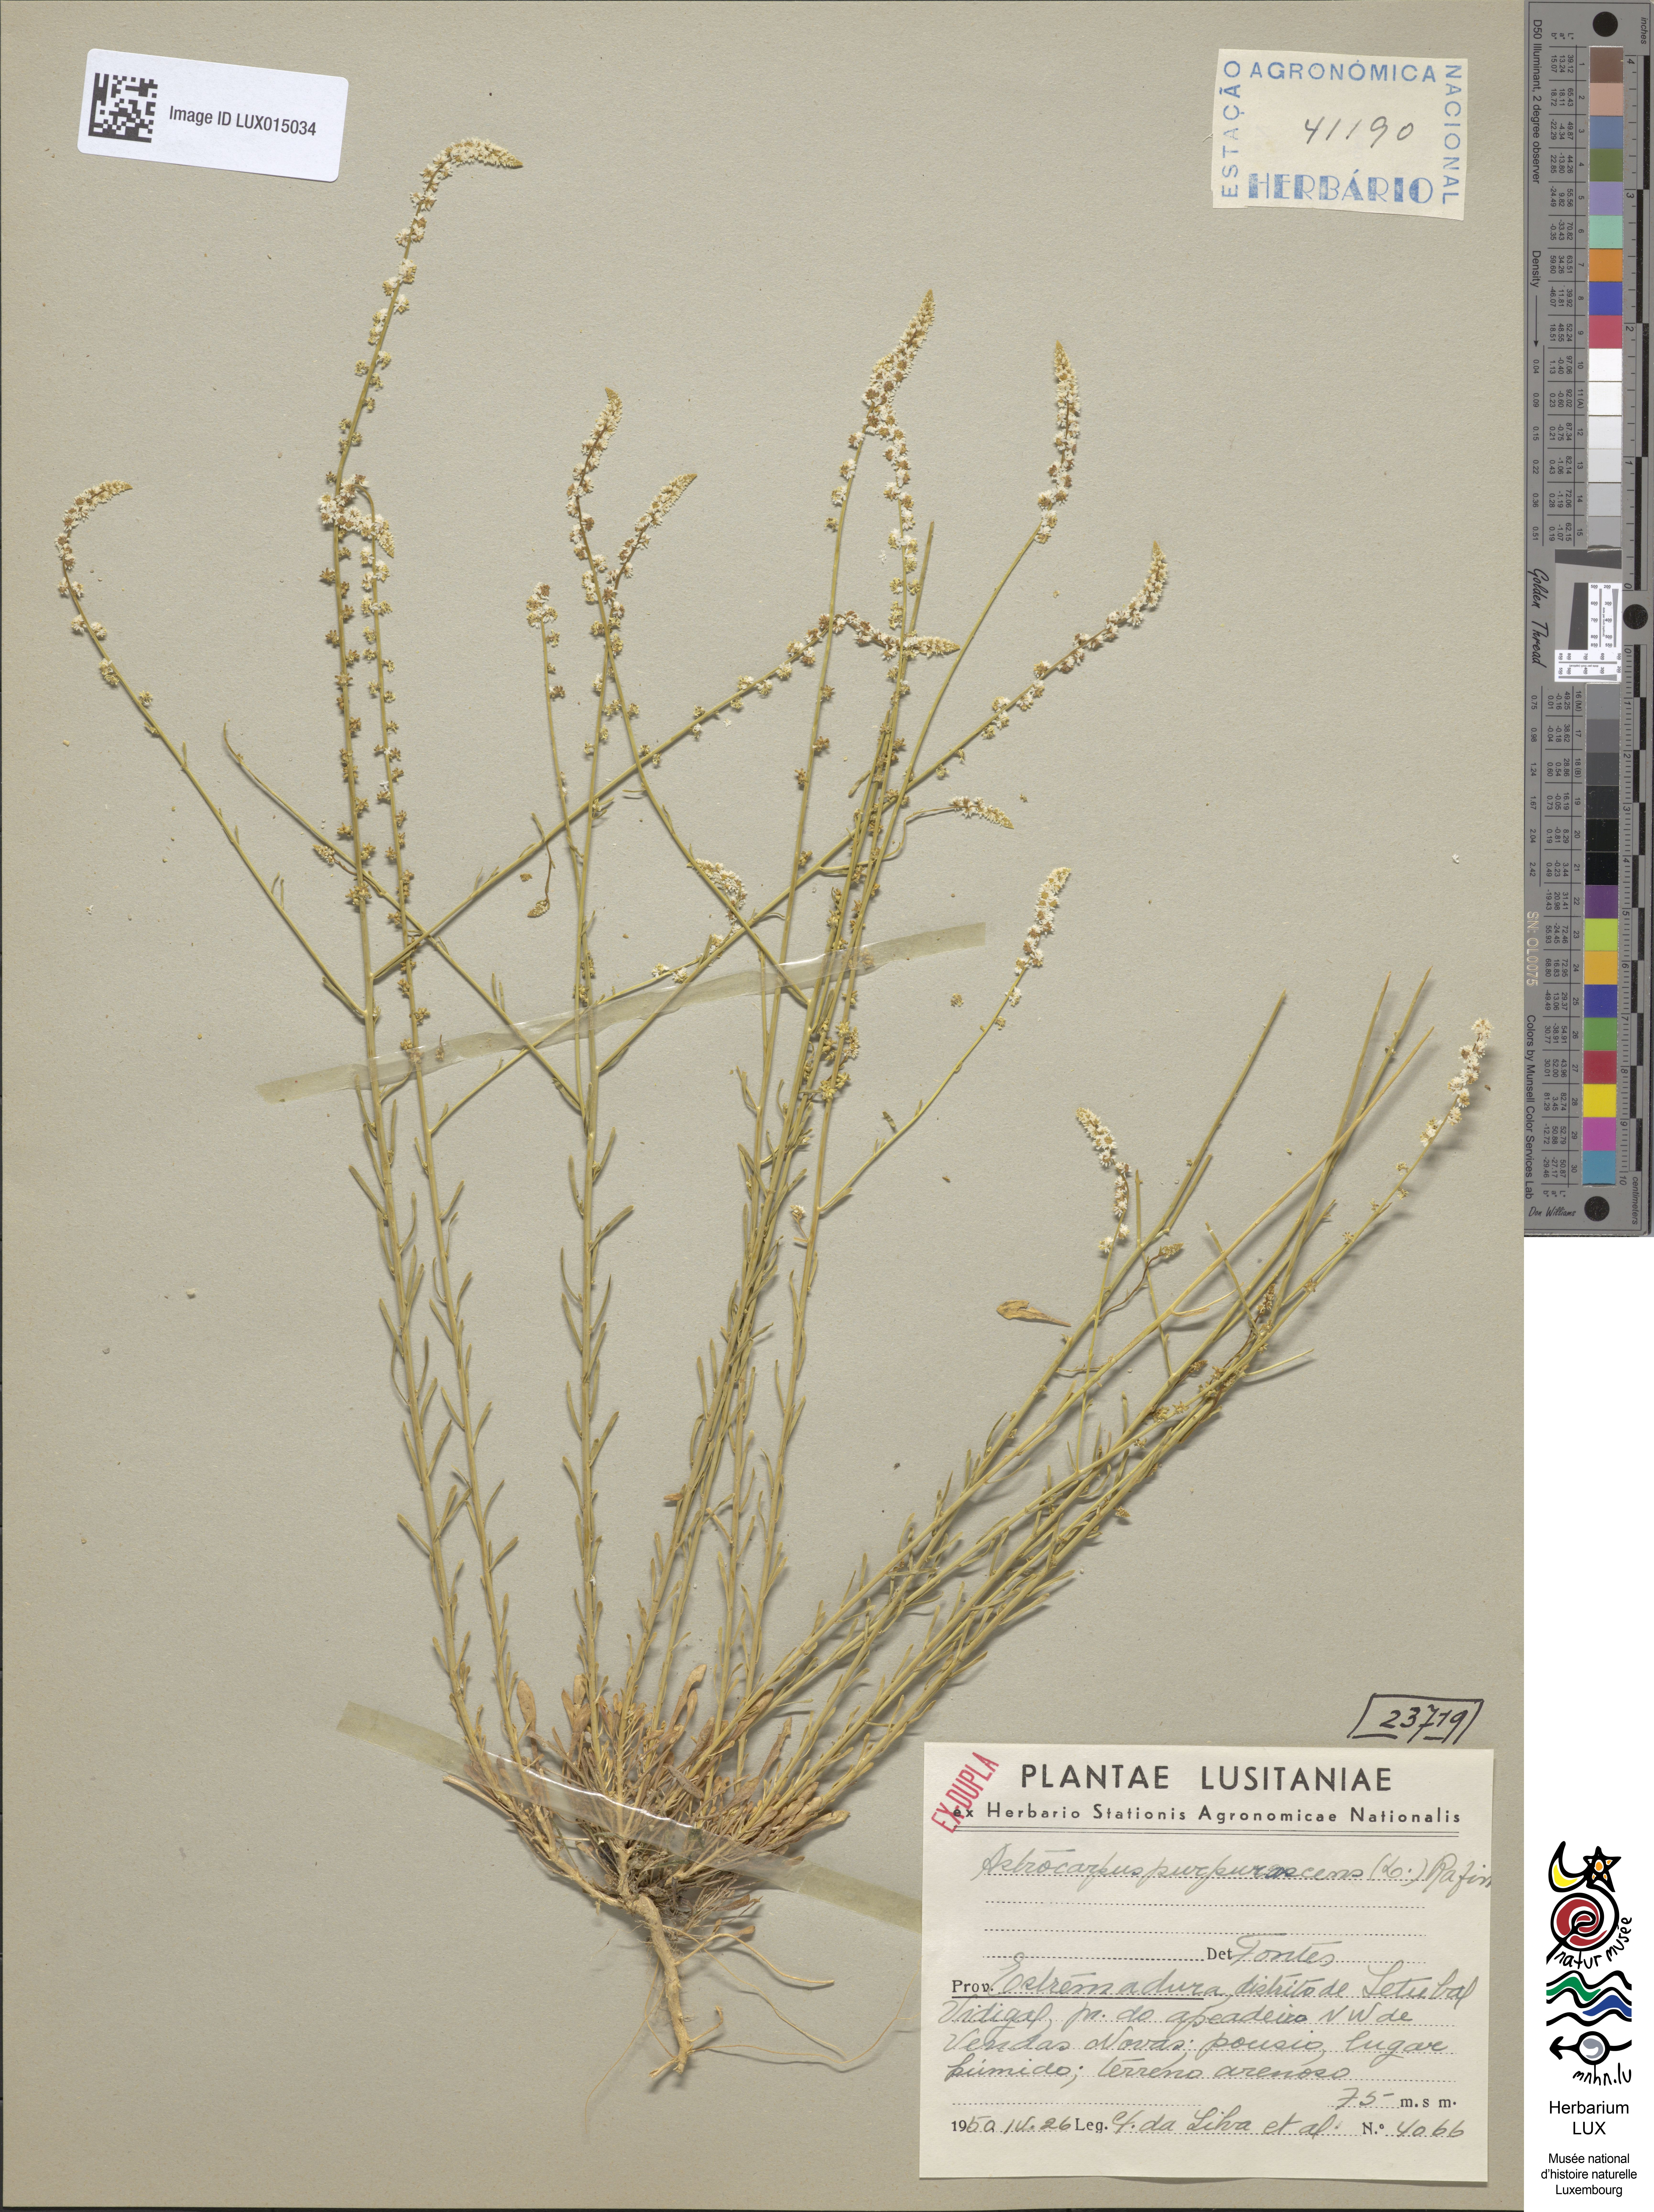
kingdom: Plantae
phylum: Tracheophyta
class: Magnoliopsida
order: Brassicales
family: Resedaceae
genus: Sesamoides
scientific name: Sesamoides purpurascens
